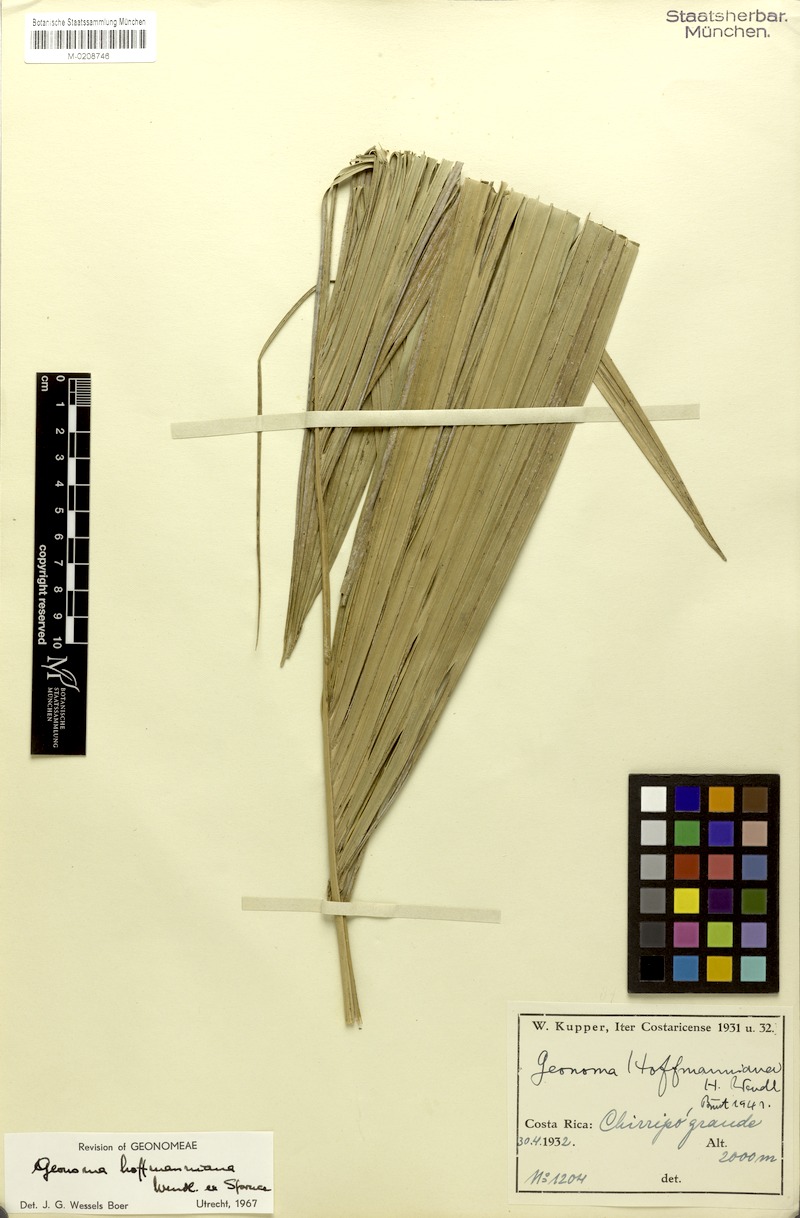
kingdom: Plantae
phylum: Tracheophyta
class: Liliopsida
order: Arecales
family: Arecaceae
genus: Geonoma
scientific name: Geonoma orbignyana
